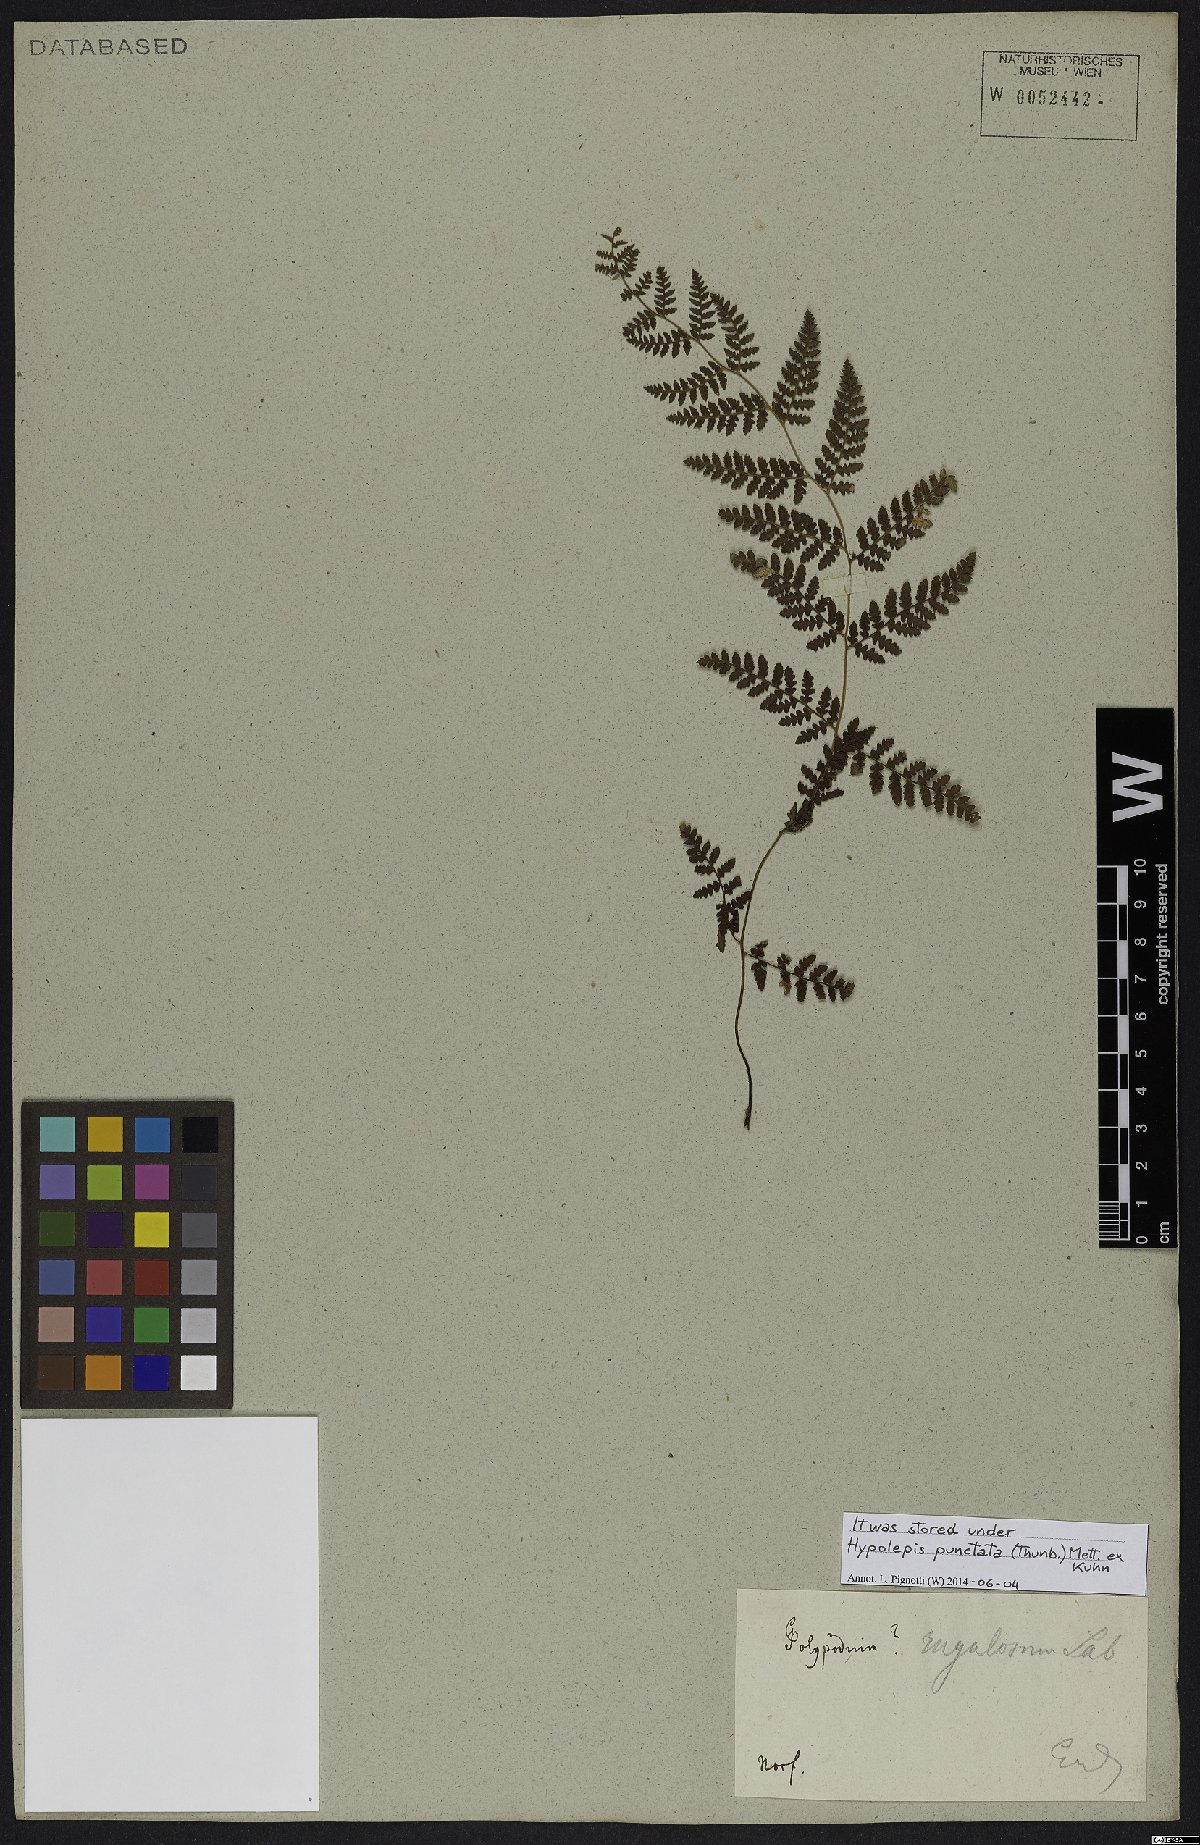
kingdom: Plantae
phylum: Tracheophyta
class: Polypodiopsida
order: Polypodiales
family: Dennstaedtiaceae
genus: Hypolepis
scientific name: Hypolepis punctata
